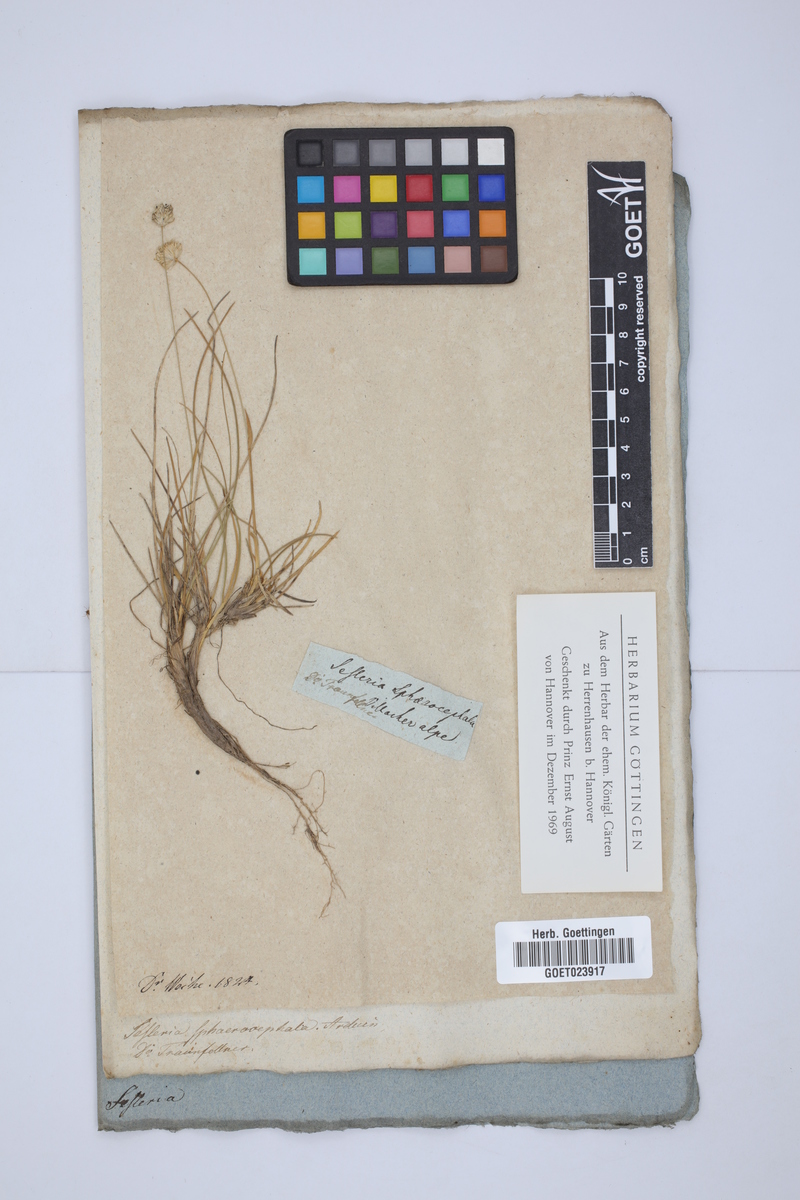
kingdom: Plantae
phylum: Tracheophyta
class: Liliopsida
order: Poales
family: Poaceae
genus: Sesleriella
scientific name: Sesleriella sphaerocephala
